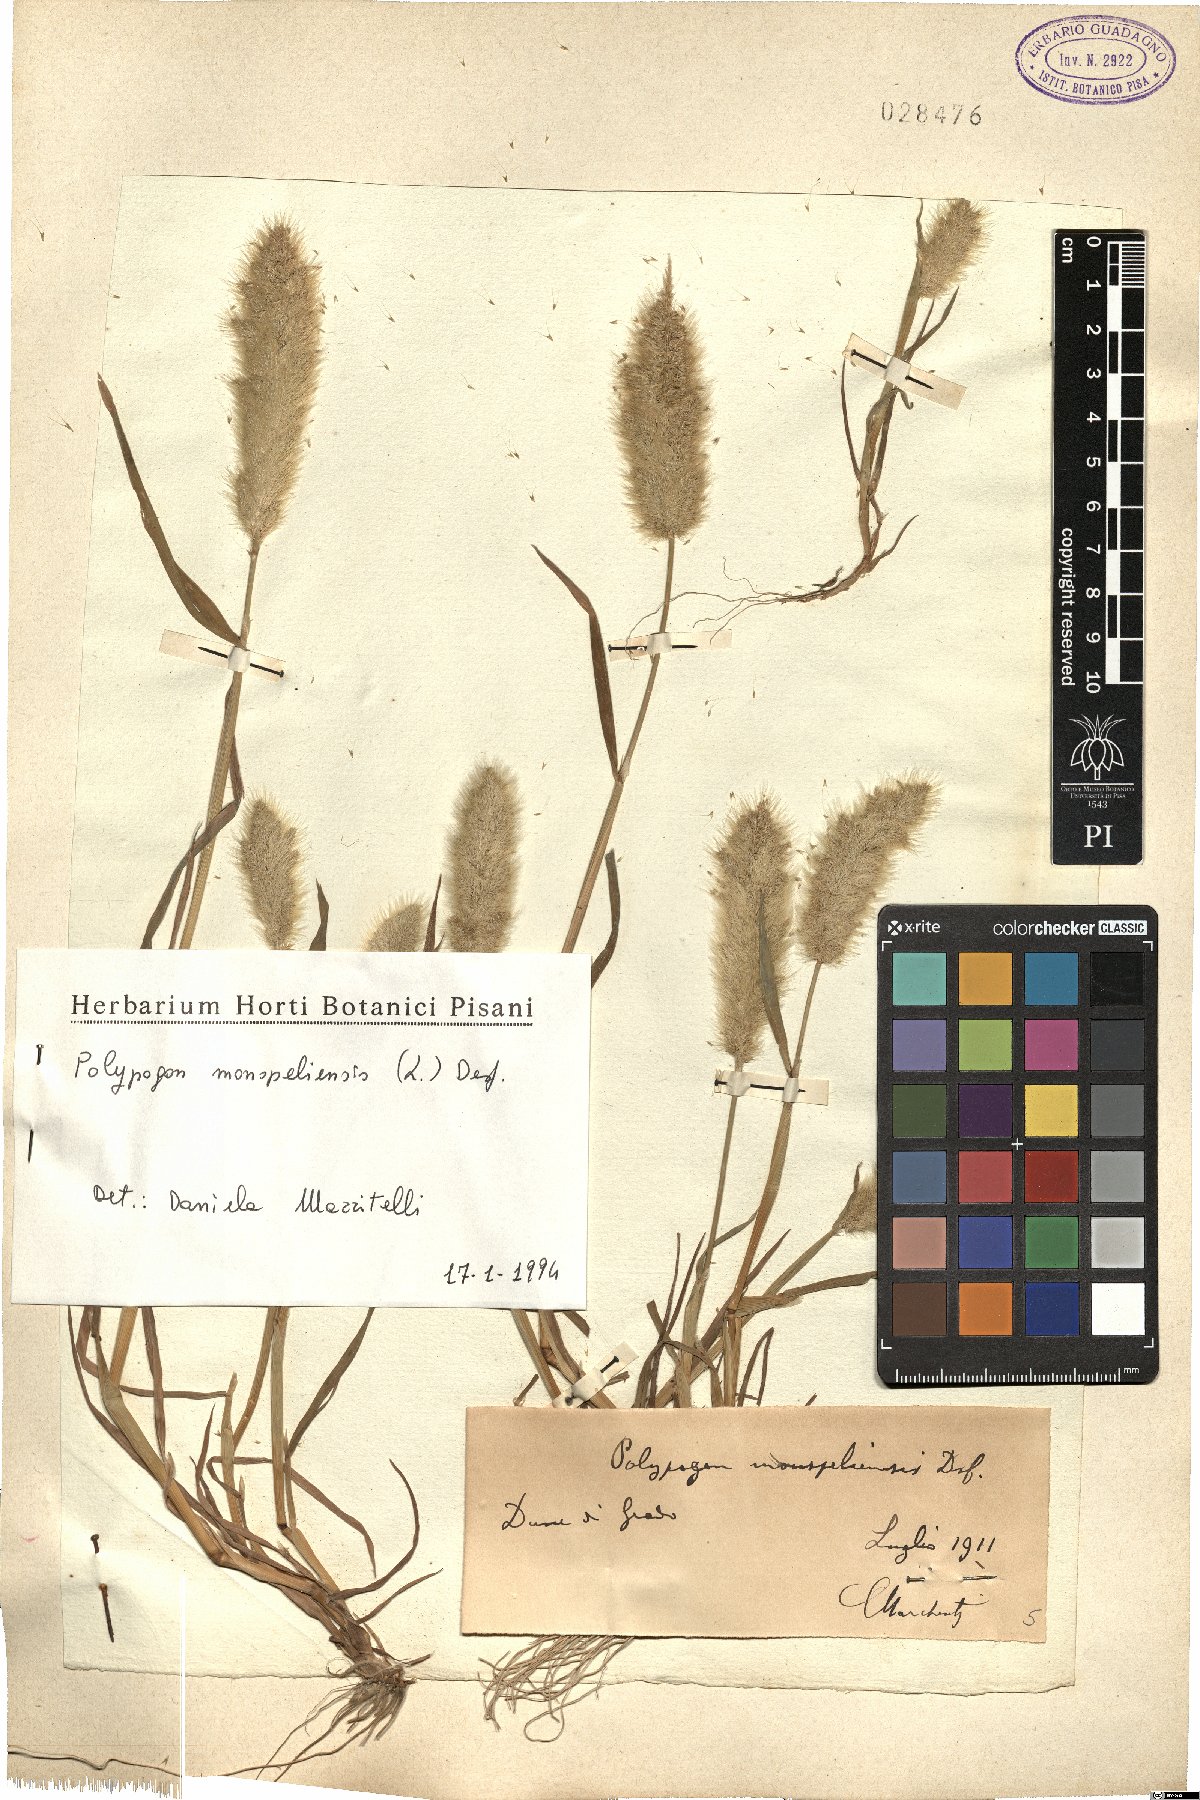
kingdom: Plantae
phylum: Tracheophyta
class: Liliopsida
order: Poales
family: Poaceae
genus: Polypogon
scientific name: Polypogon monspeliensis
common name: Annual rabbitsfoot grass
